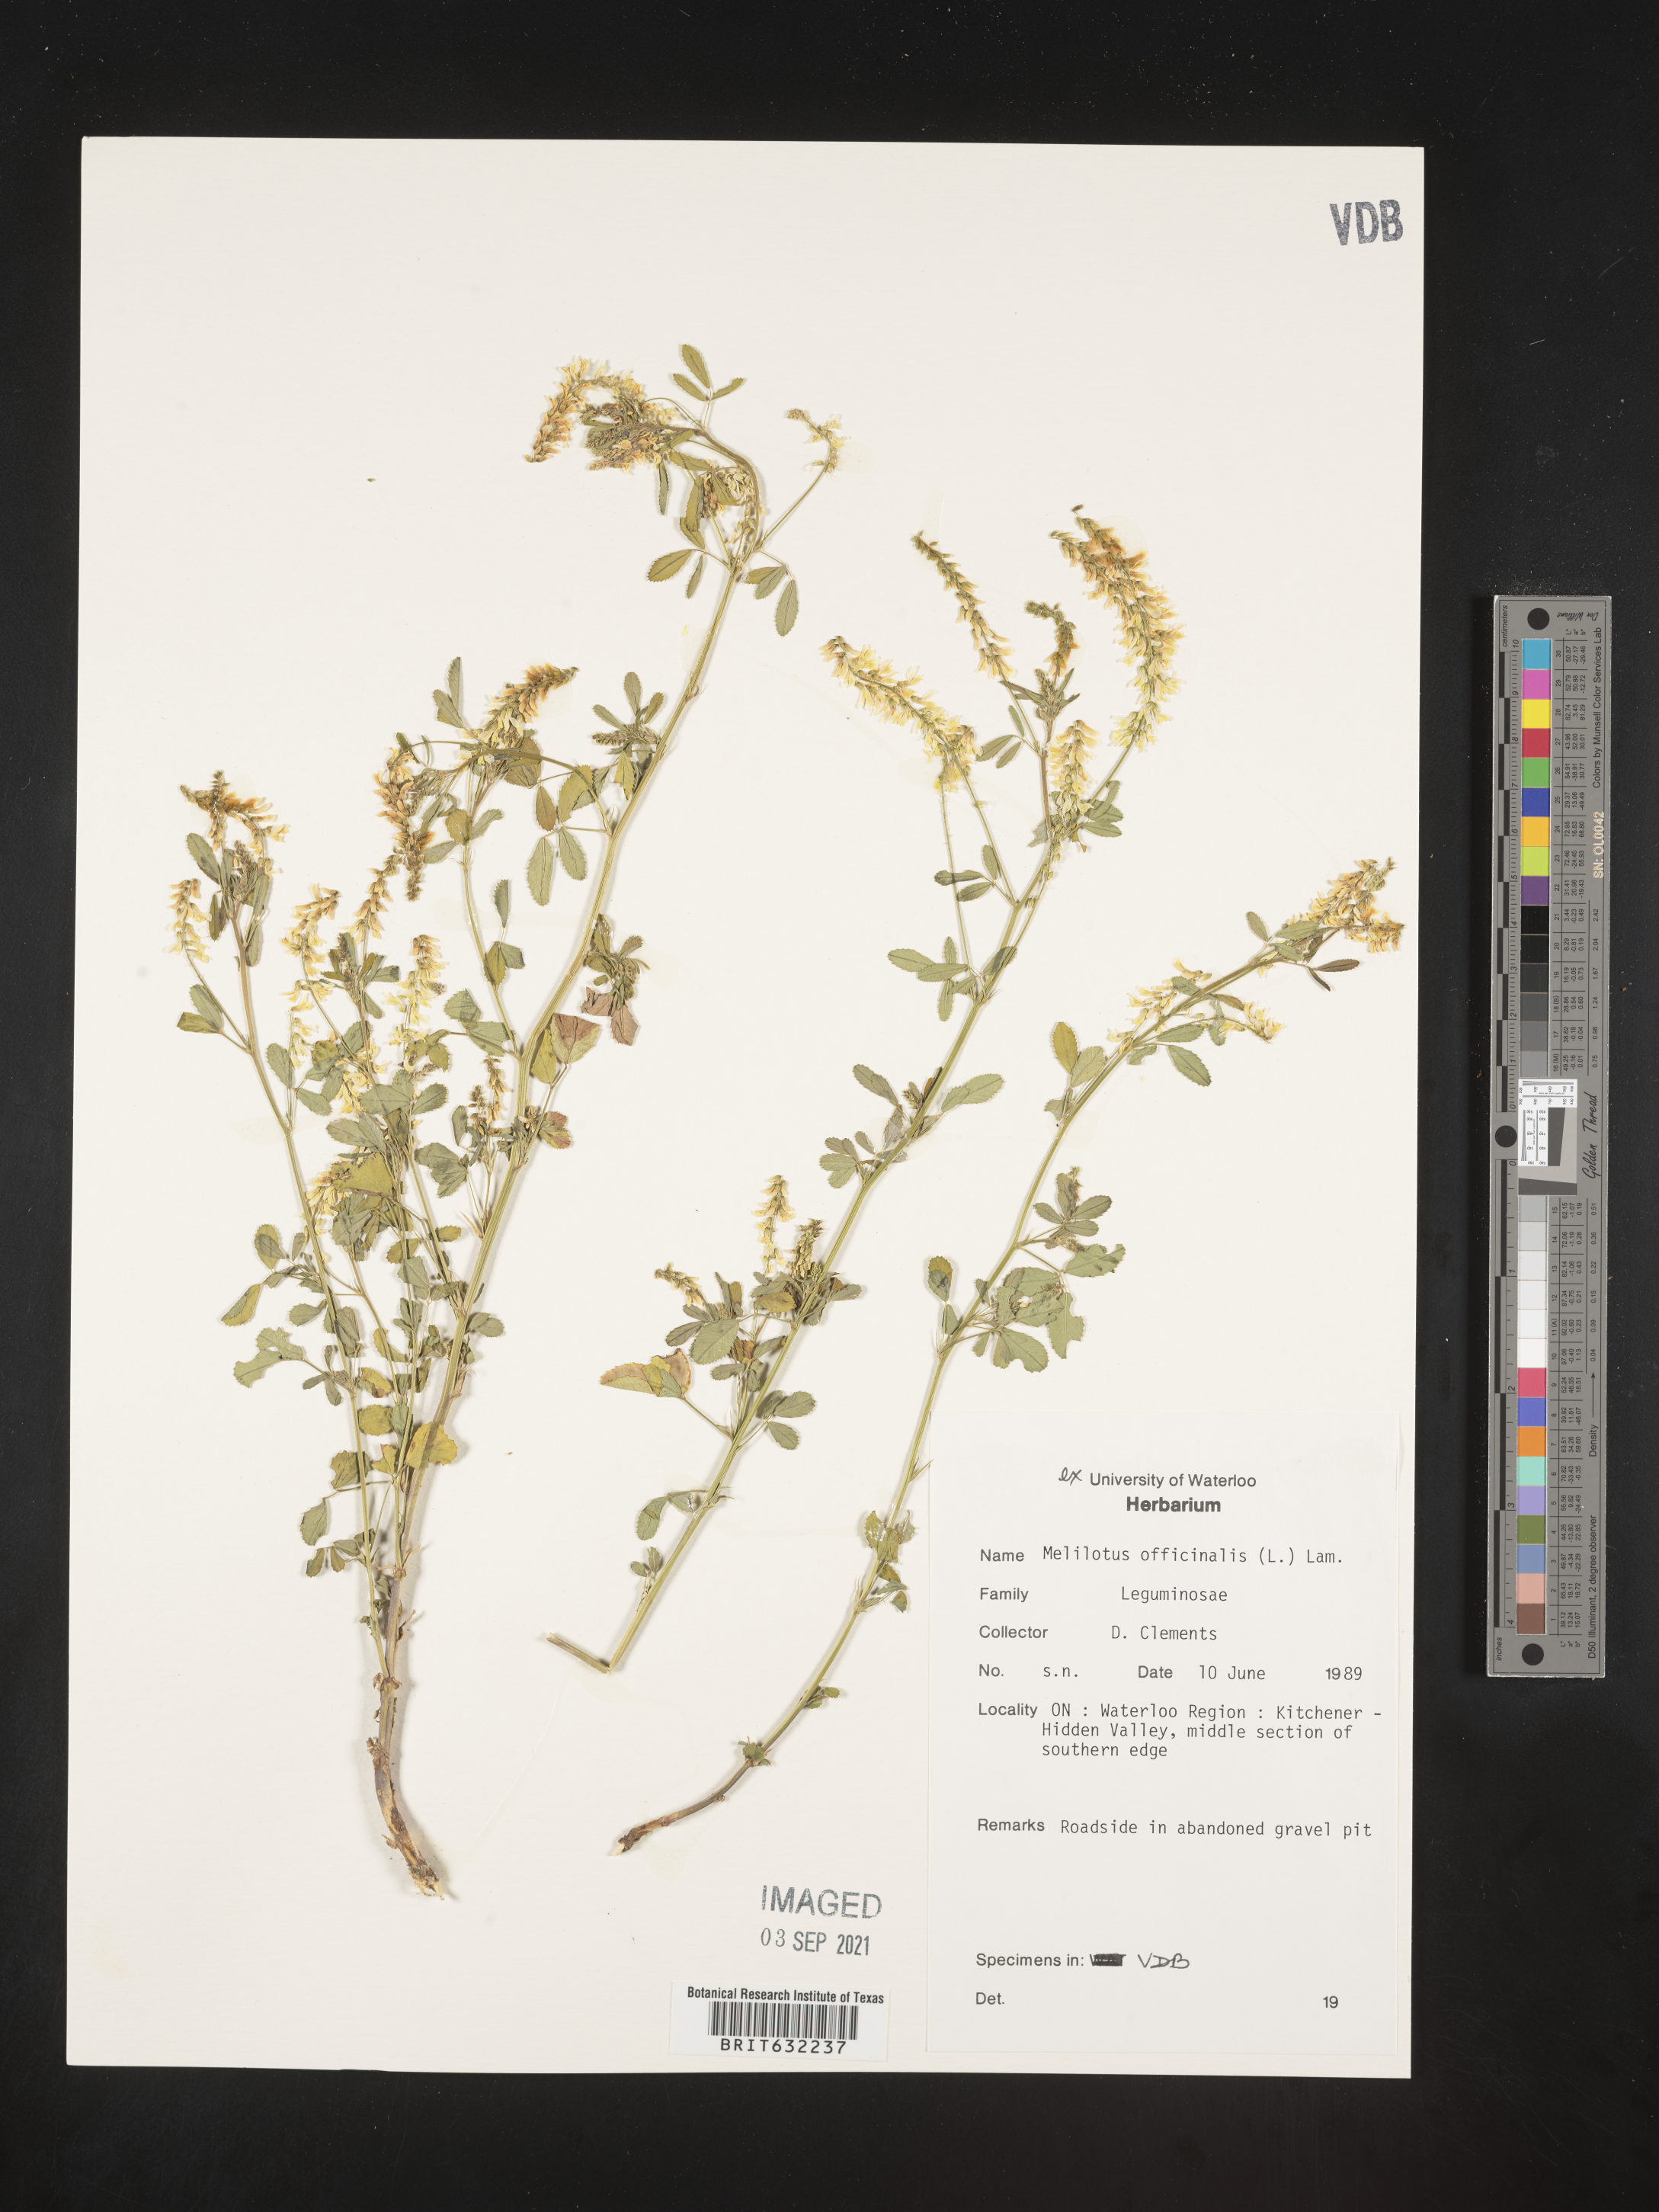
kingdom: Plantae
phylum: Tracheophyta
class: Magnoliopsida
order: Fabales
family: Fabaceae
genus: Melilotus
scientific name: Melilotus
